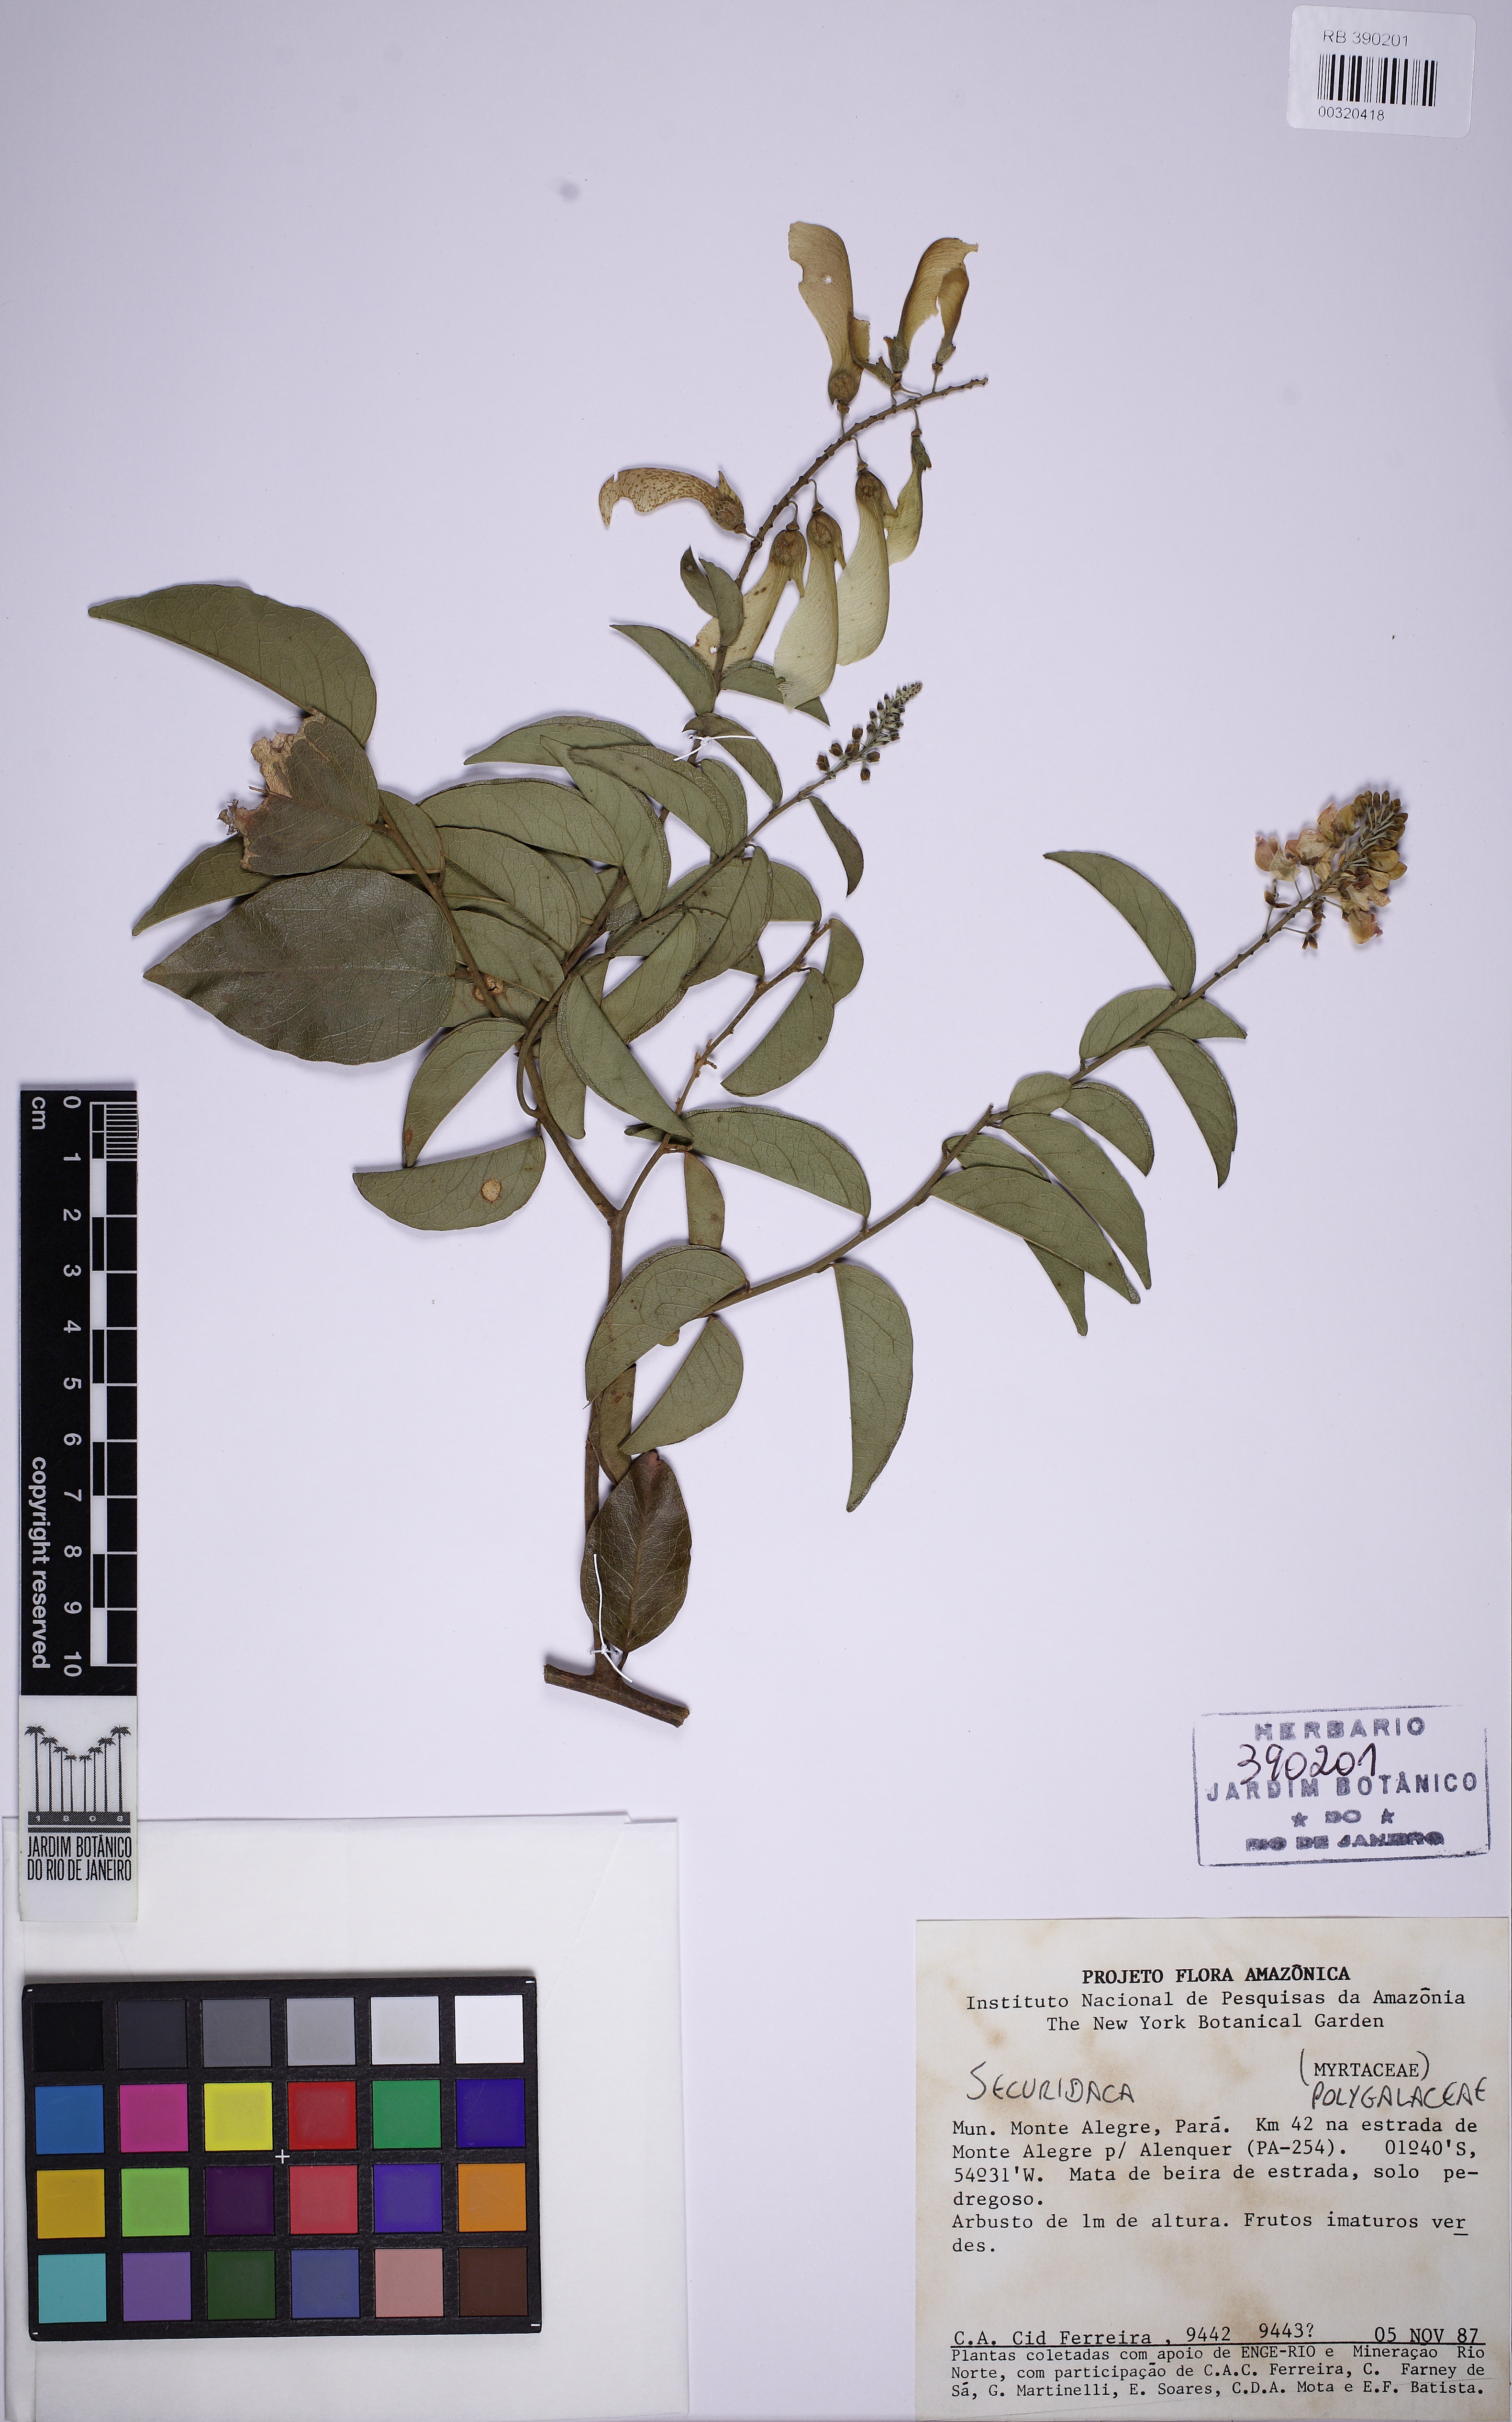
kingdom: Plantae
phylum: Tracheophyta
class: Magnoliopsida
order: Fabales
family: Polygalaceae
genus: Securidaca
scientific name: Securidaca
